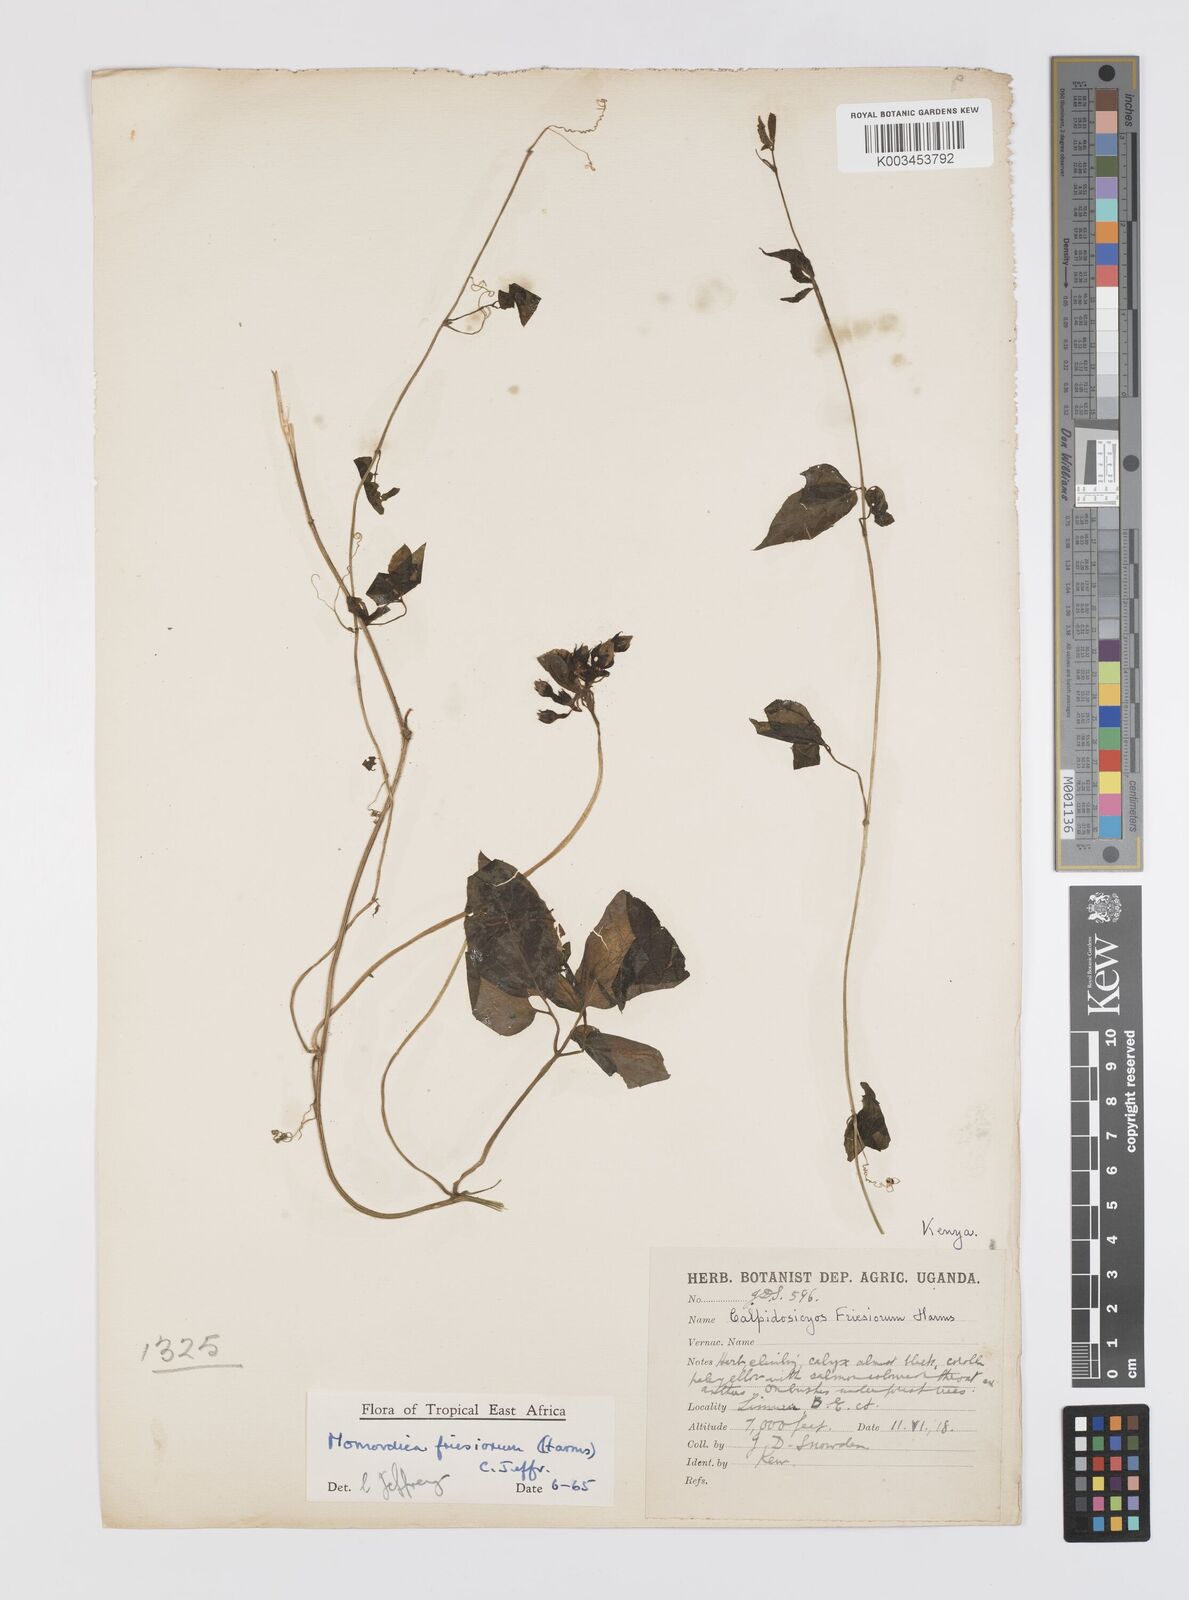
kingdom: Plantae
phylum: Tracheophyta
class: Magnoliopsida
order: Cucurbitales
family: Cucurbitaceae
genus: Momordica
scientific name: Momordica friesiorum
